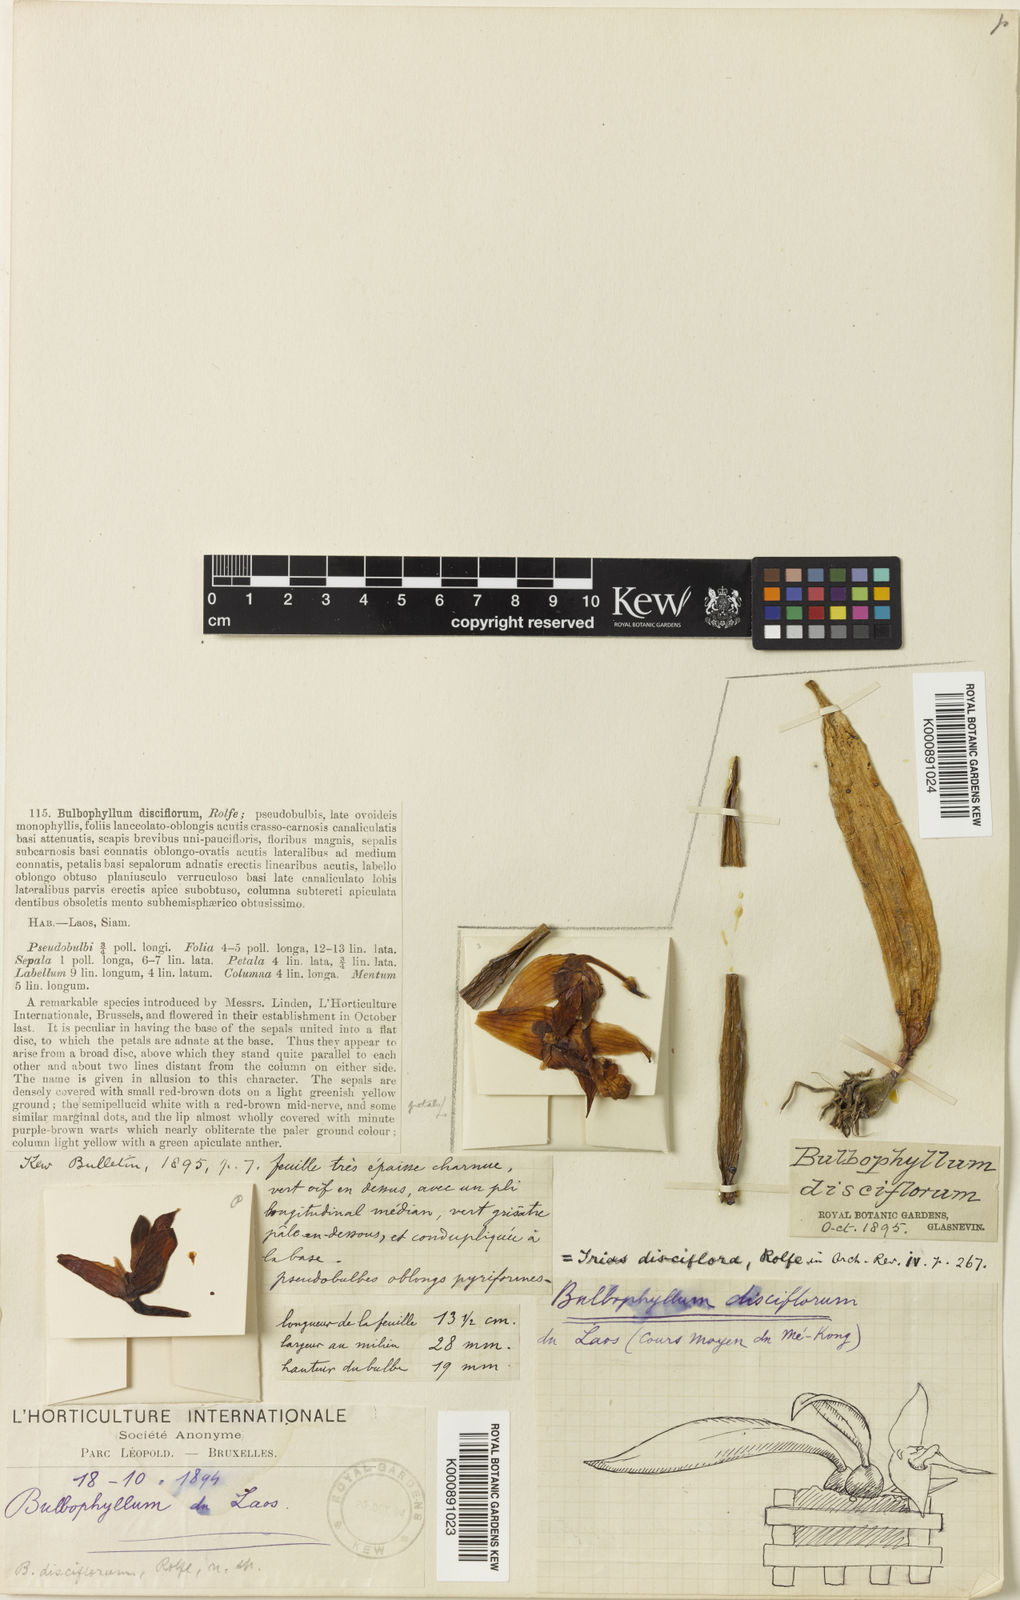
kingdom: Plantae
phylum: Tracheophyta
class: Liliopsida
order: Asparagales
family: Orchidaceae
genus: Bulbophyllum
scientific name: Bulbophyllum disciflorum
